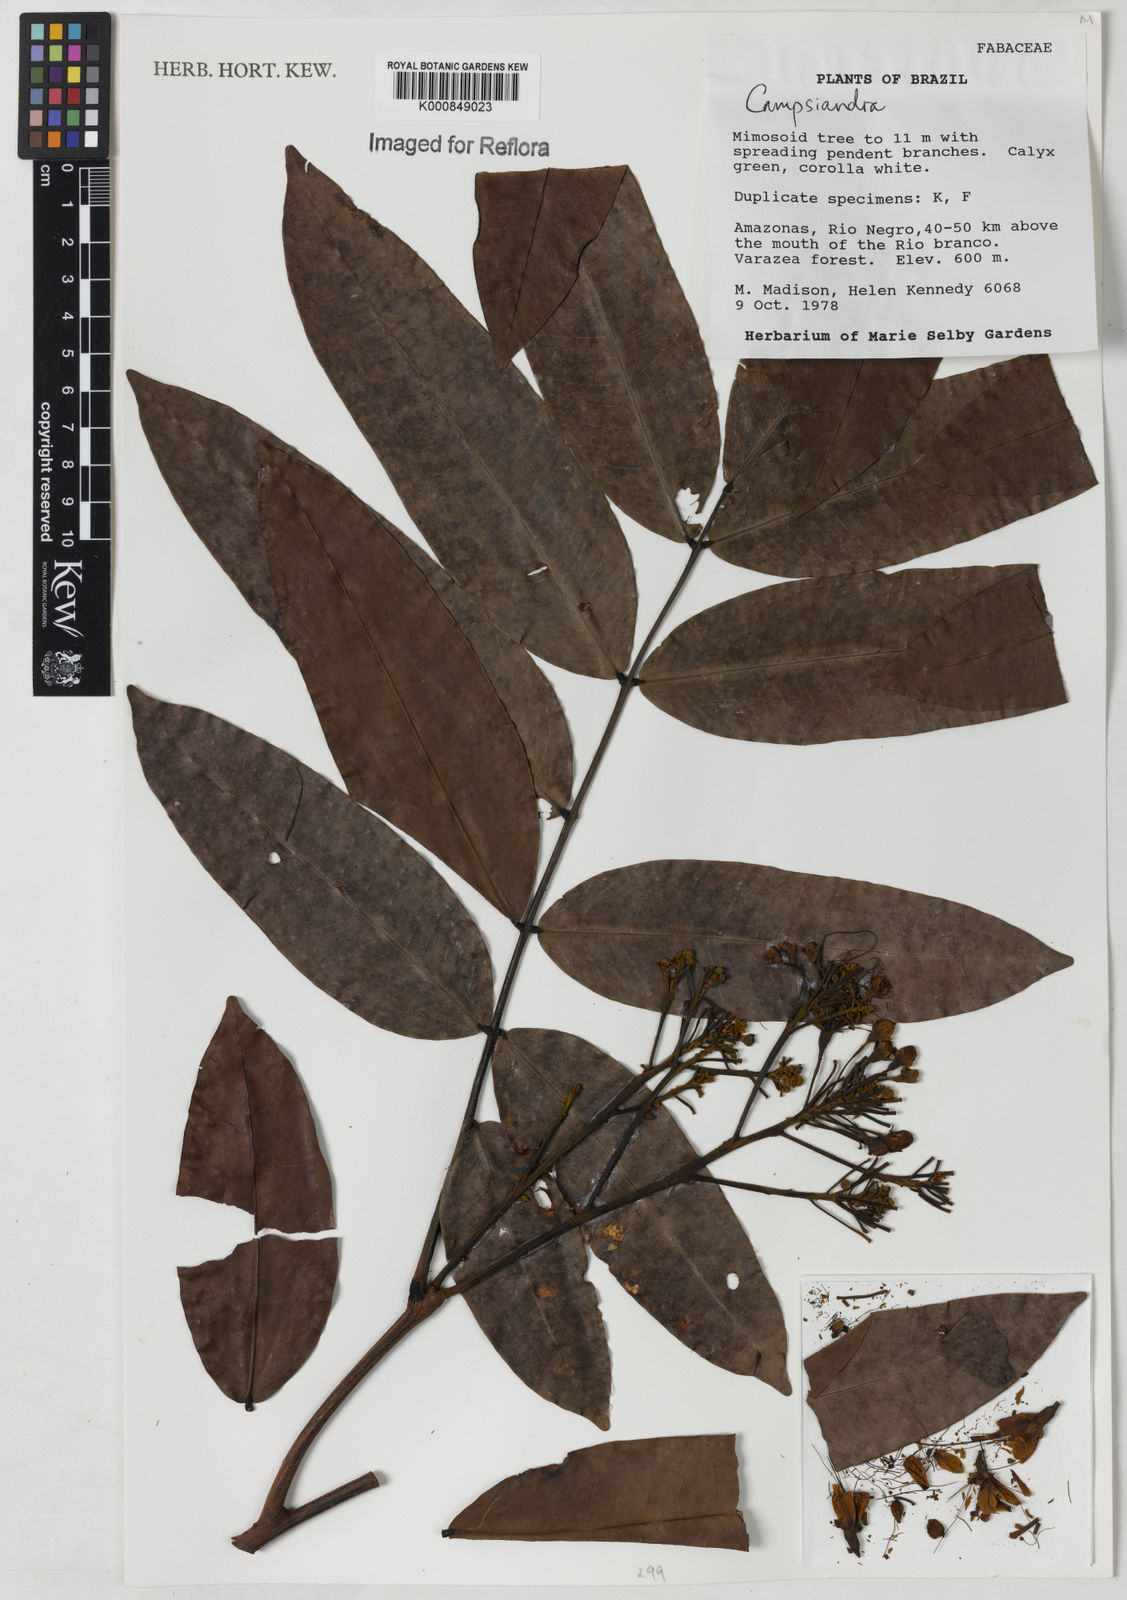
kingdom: Plantae
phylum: Tracheophyta
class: Magnoliopsida
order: Fabales
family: Fabaceae
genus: Campsiandra
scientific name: Campsiandra
